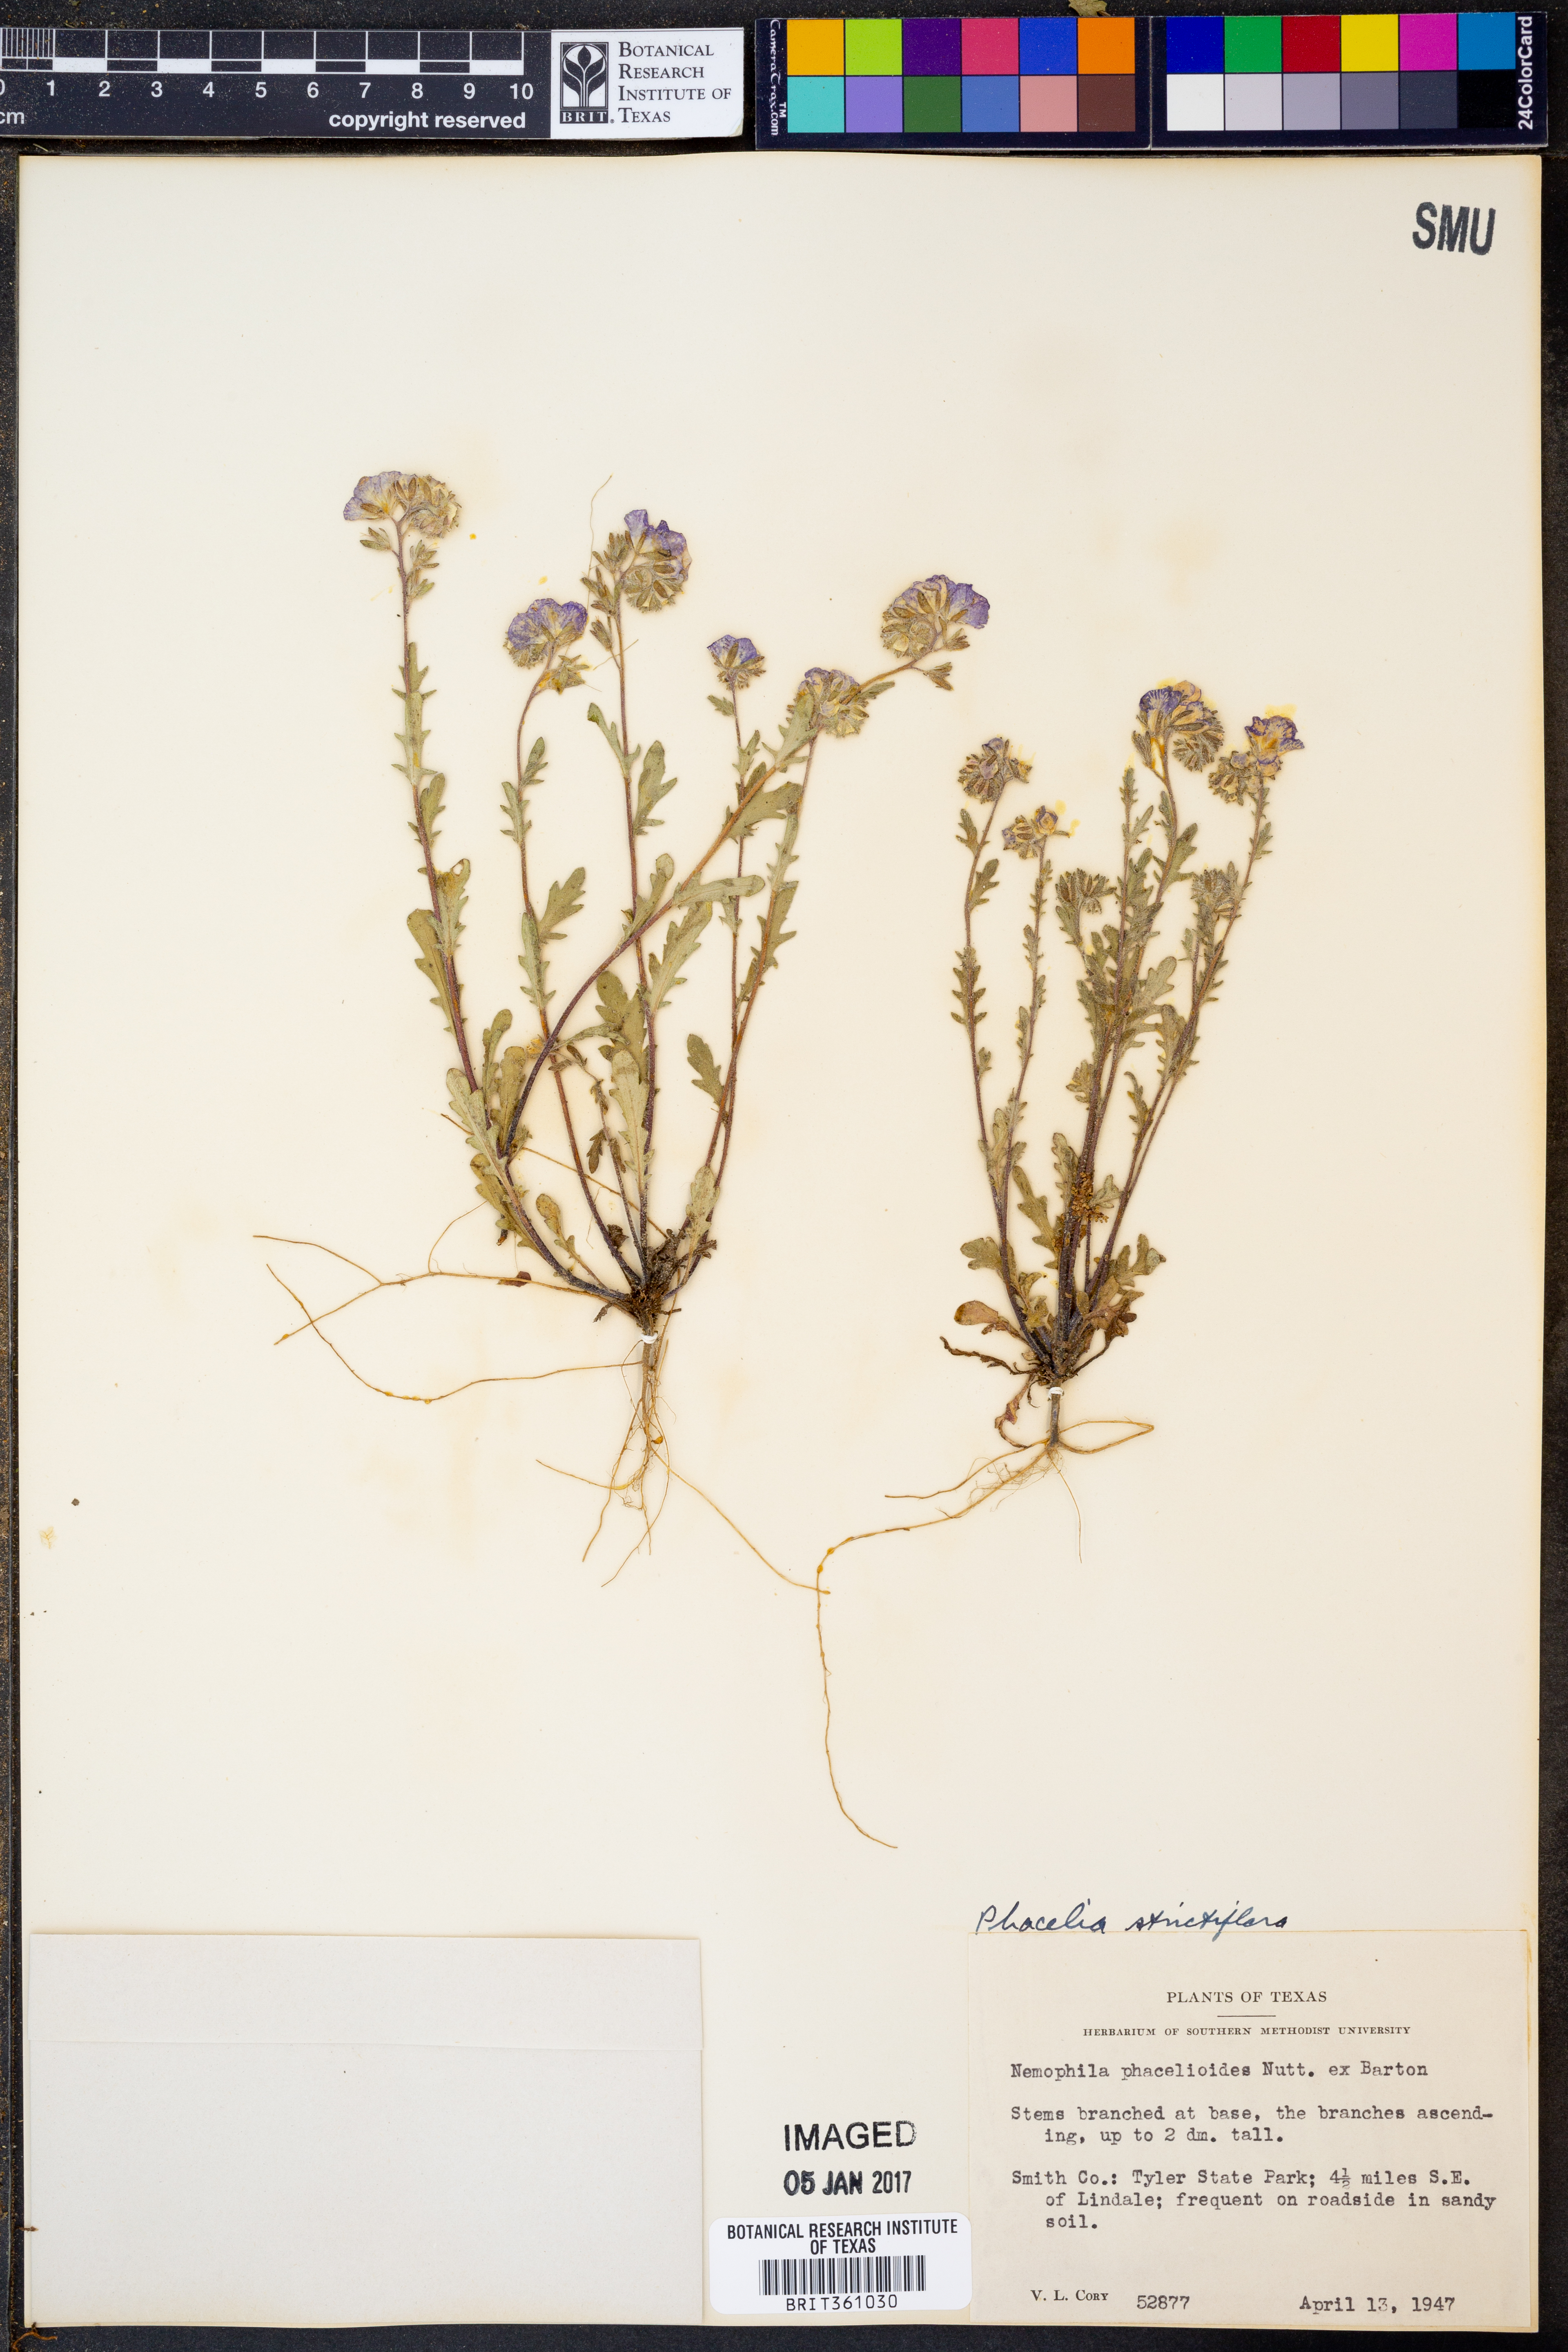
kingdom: Plantae
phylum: Tracheophyta
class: Magnoliopsida
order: Boraginales
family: Hydrophyllaceae
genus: Phacelia
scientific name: Phacelia strictiflora
